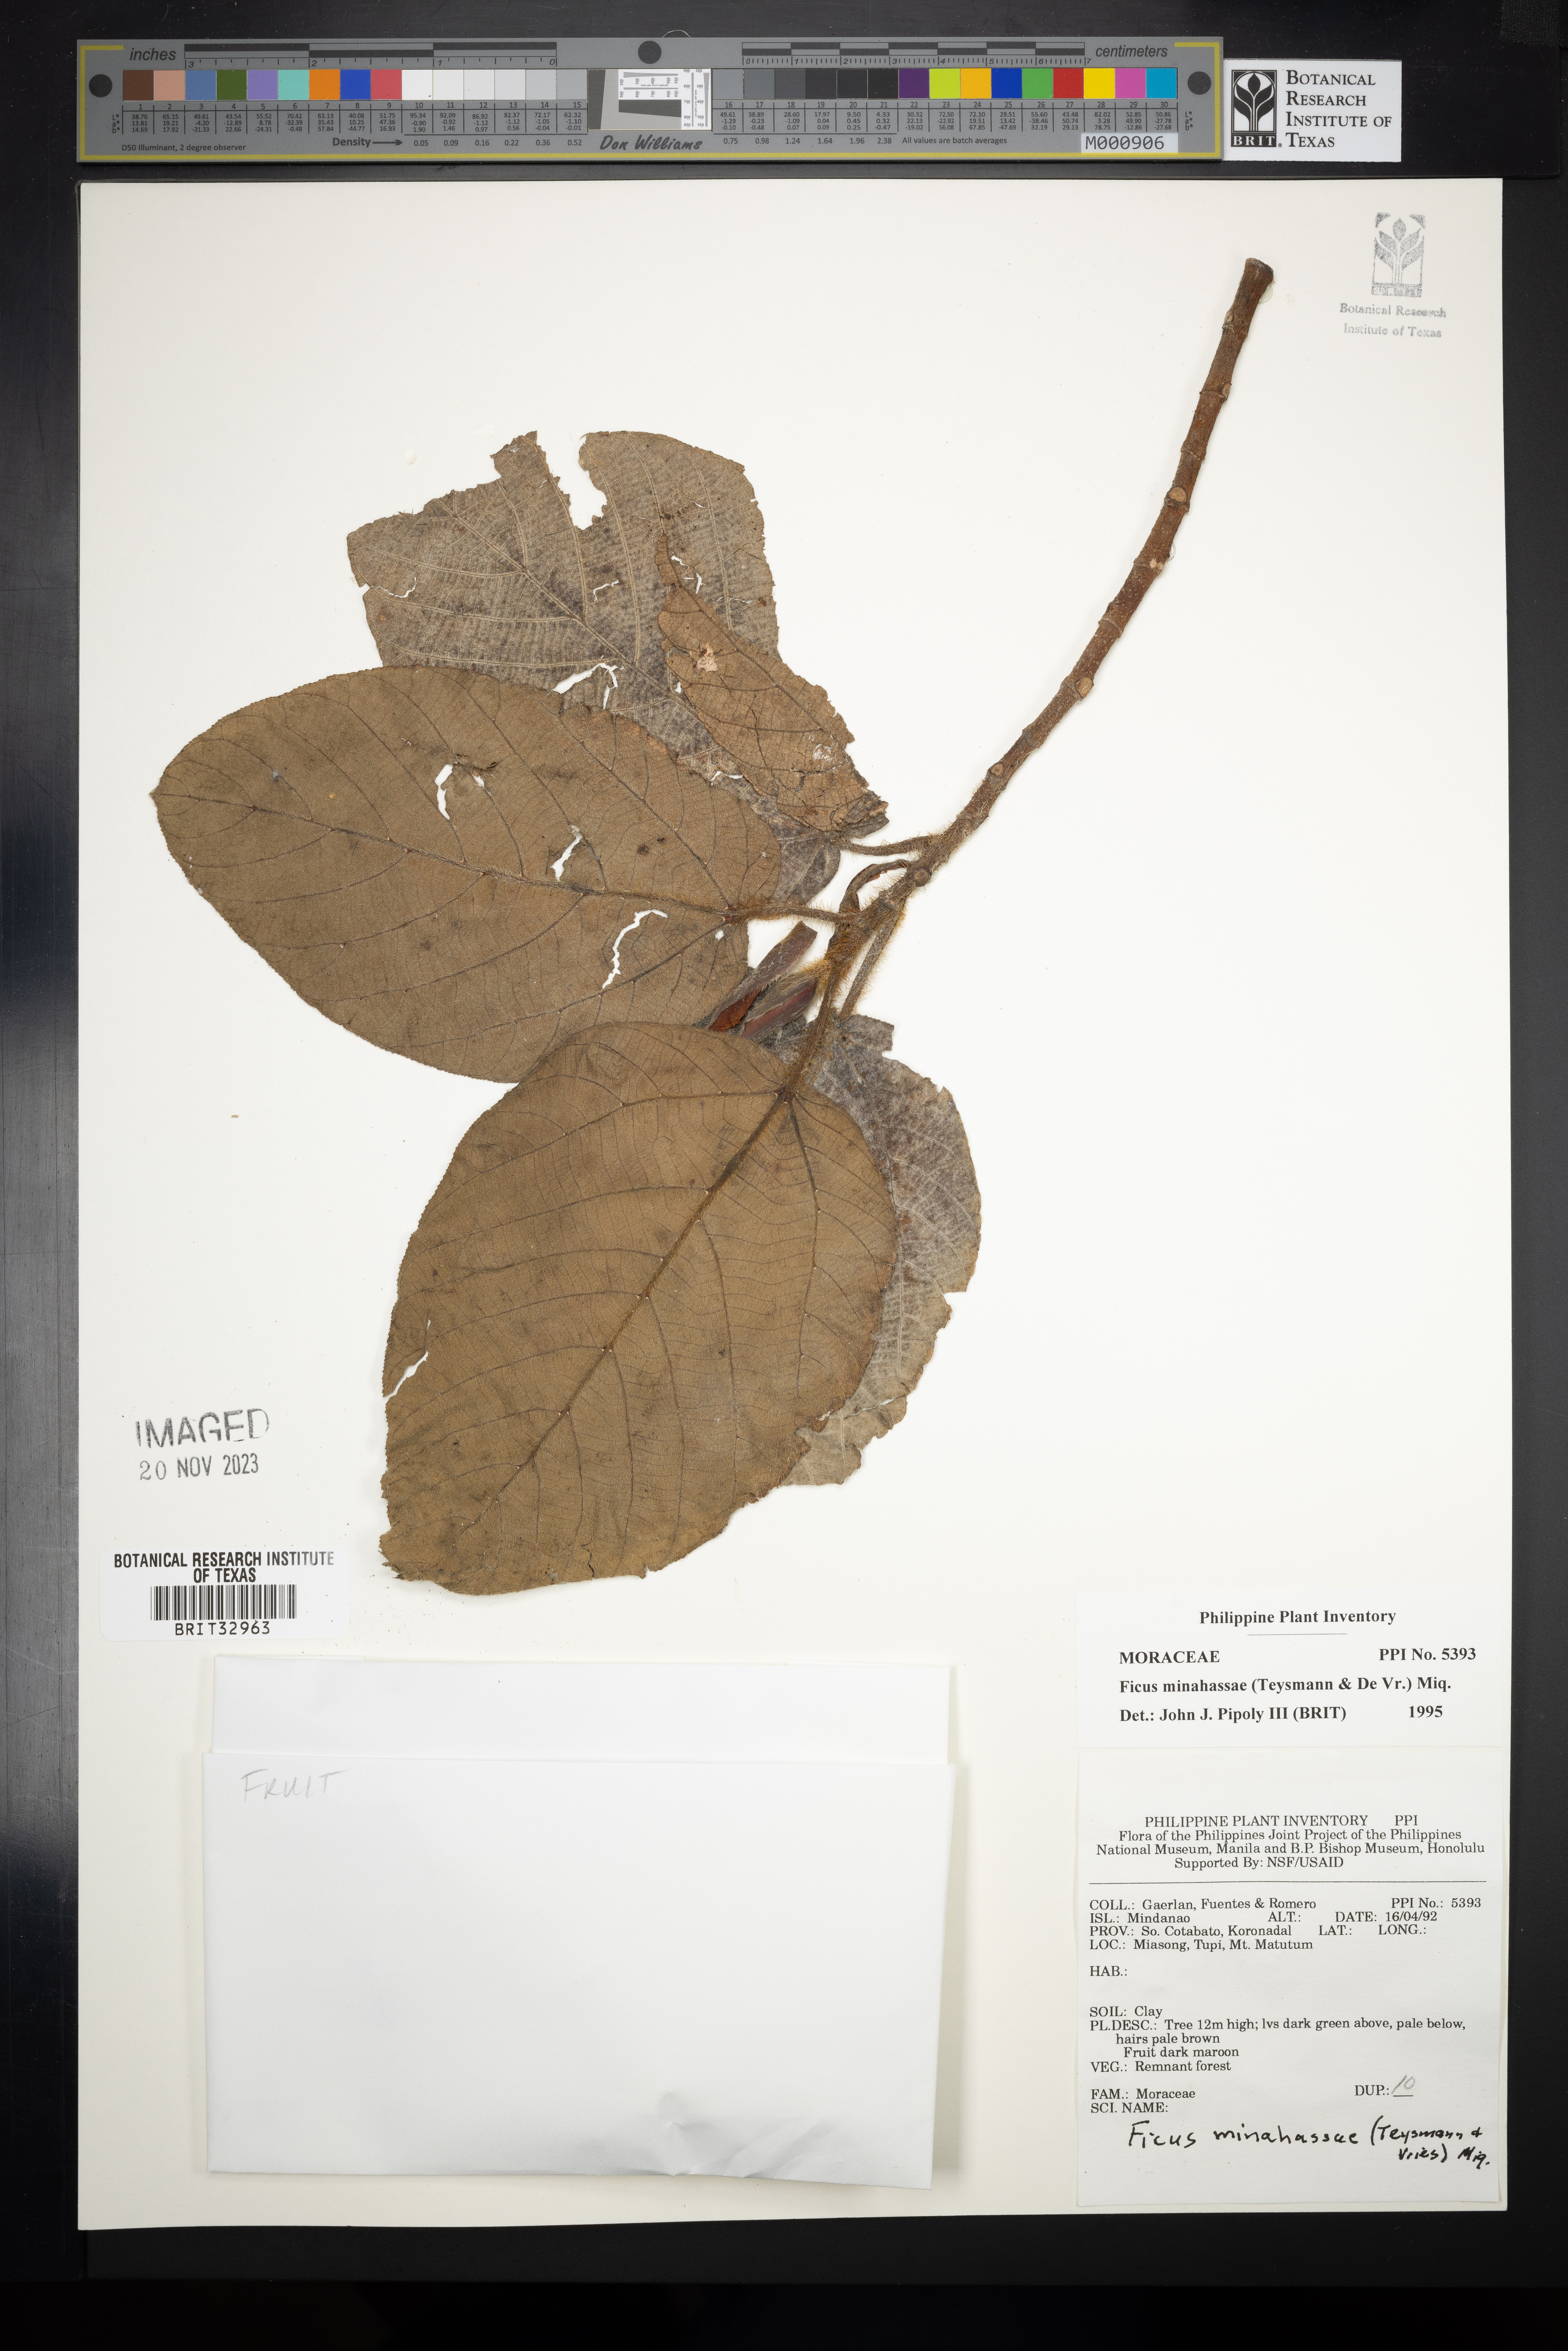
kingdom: Plantae
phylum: Tracheophyta
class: Magnoliopsida
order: Rosales
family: Moraceae
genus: Ficus
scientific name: Ficus minahassae
